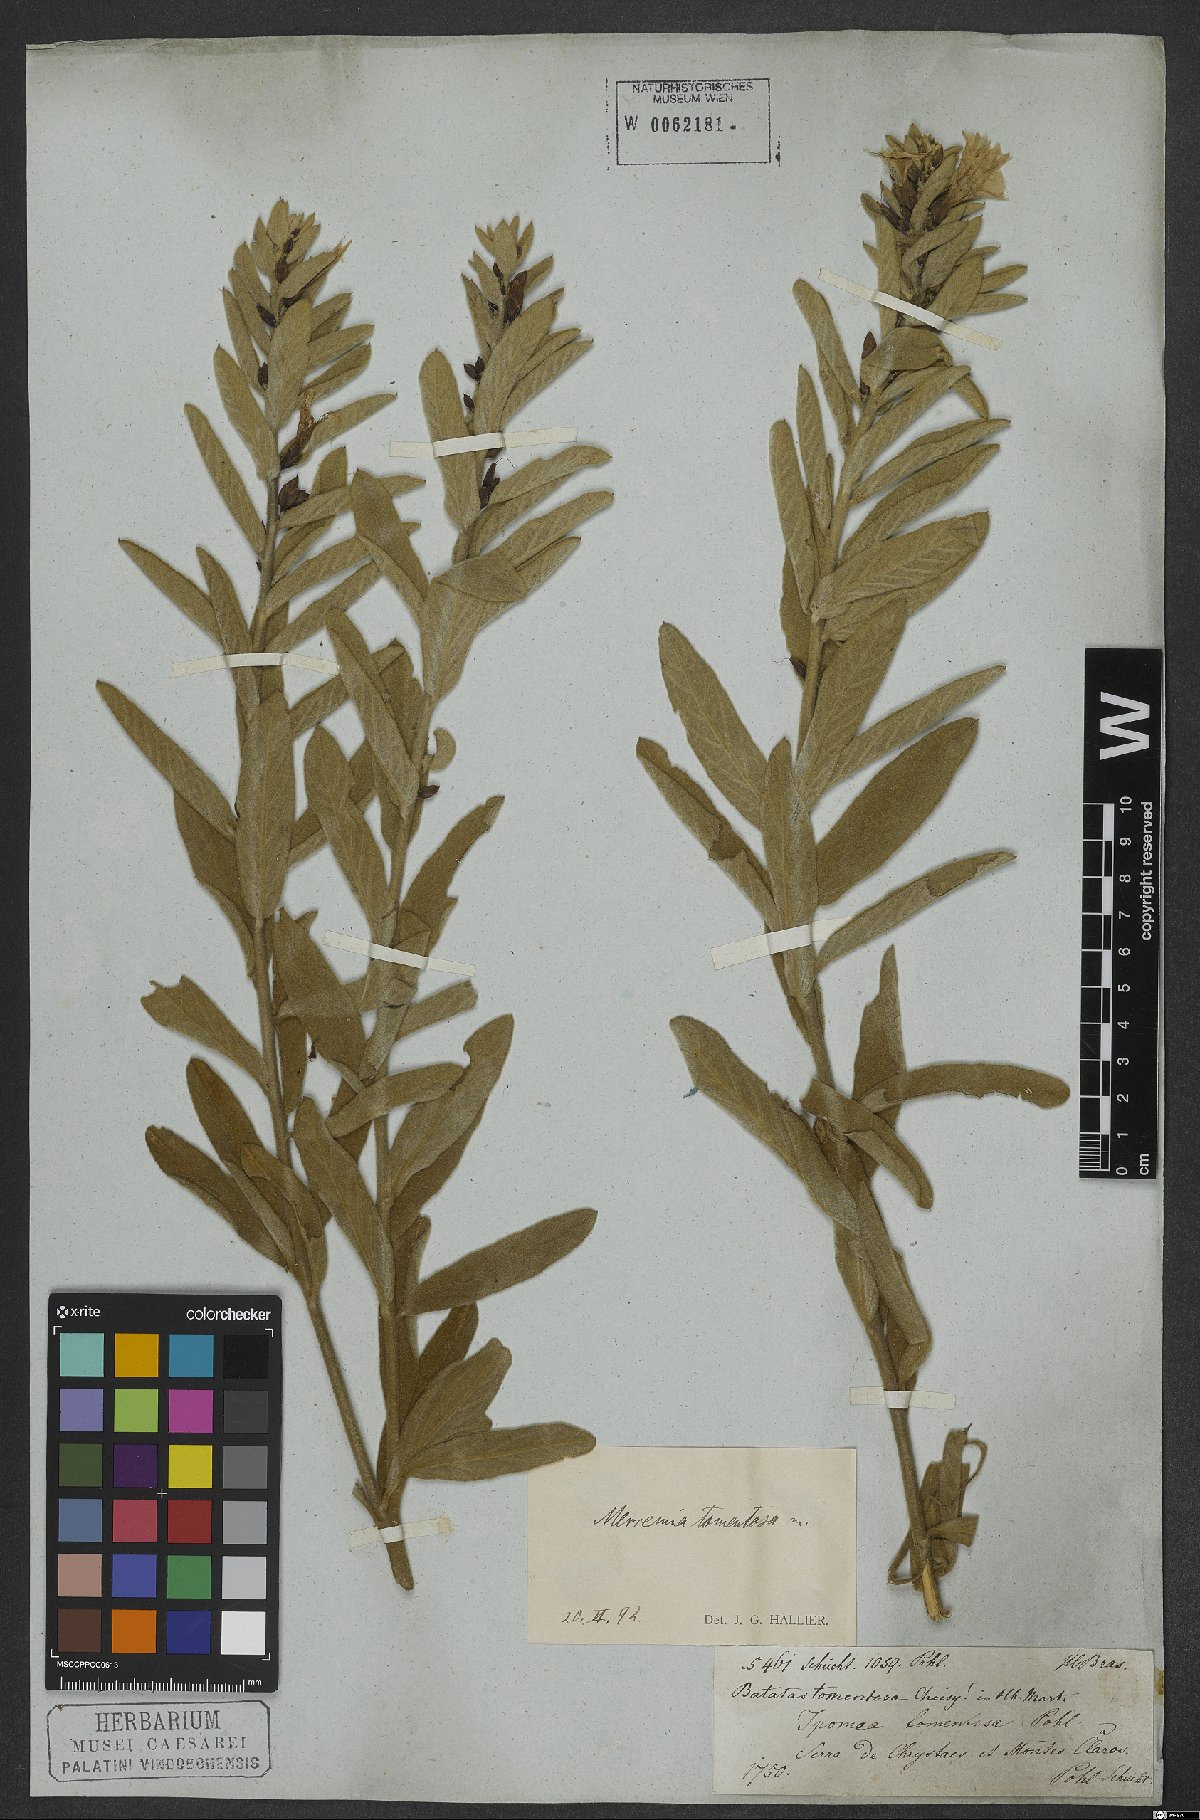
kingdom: Plantae
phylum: Tracheophyta
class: Magnoliopsida
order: Solanales
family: Convolvulaceae
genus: Distimake
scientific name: Distimake tomentosus
